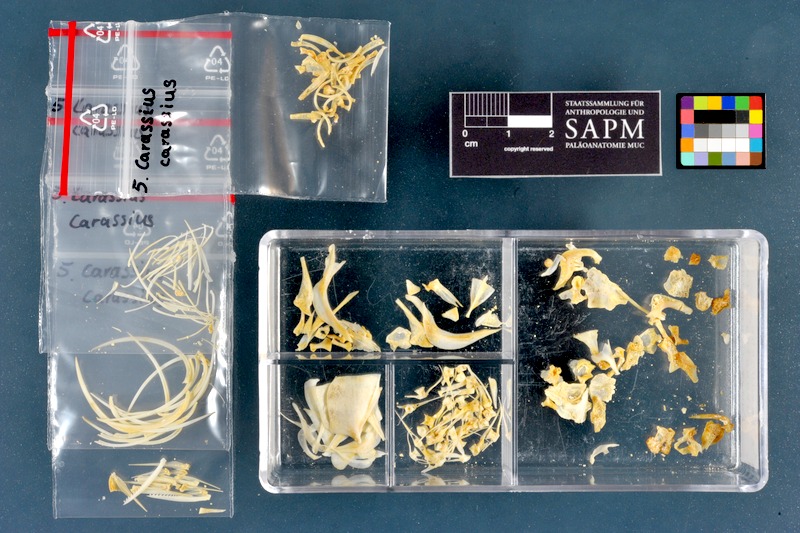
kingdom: Animalia
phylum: Chordata
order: Cypriniformes
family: Cyprinidae
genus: Carassius
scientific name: Carassius carassius
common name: Crucian carp
